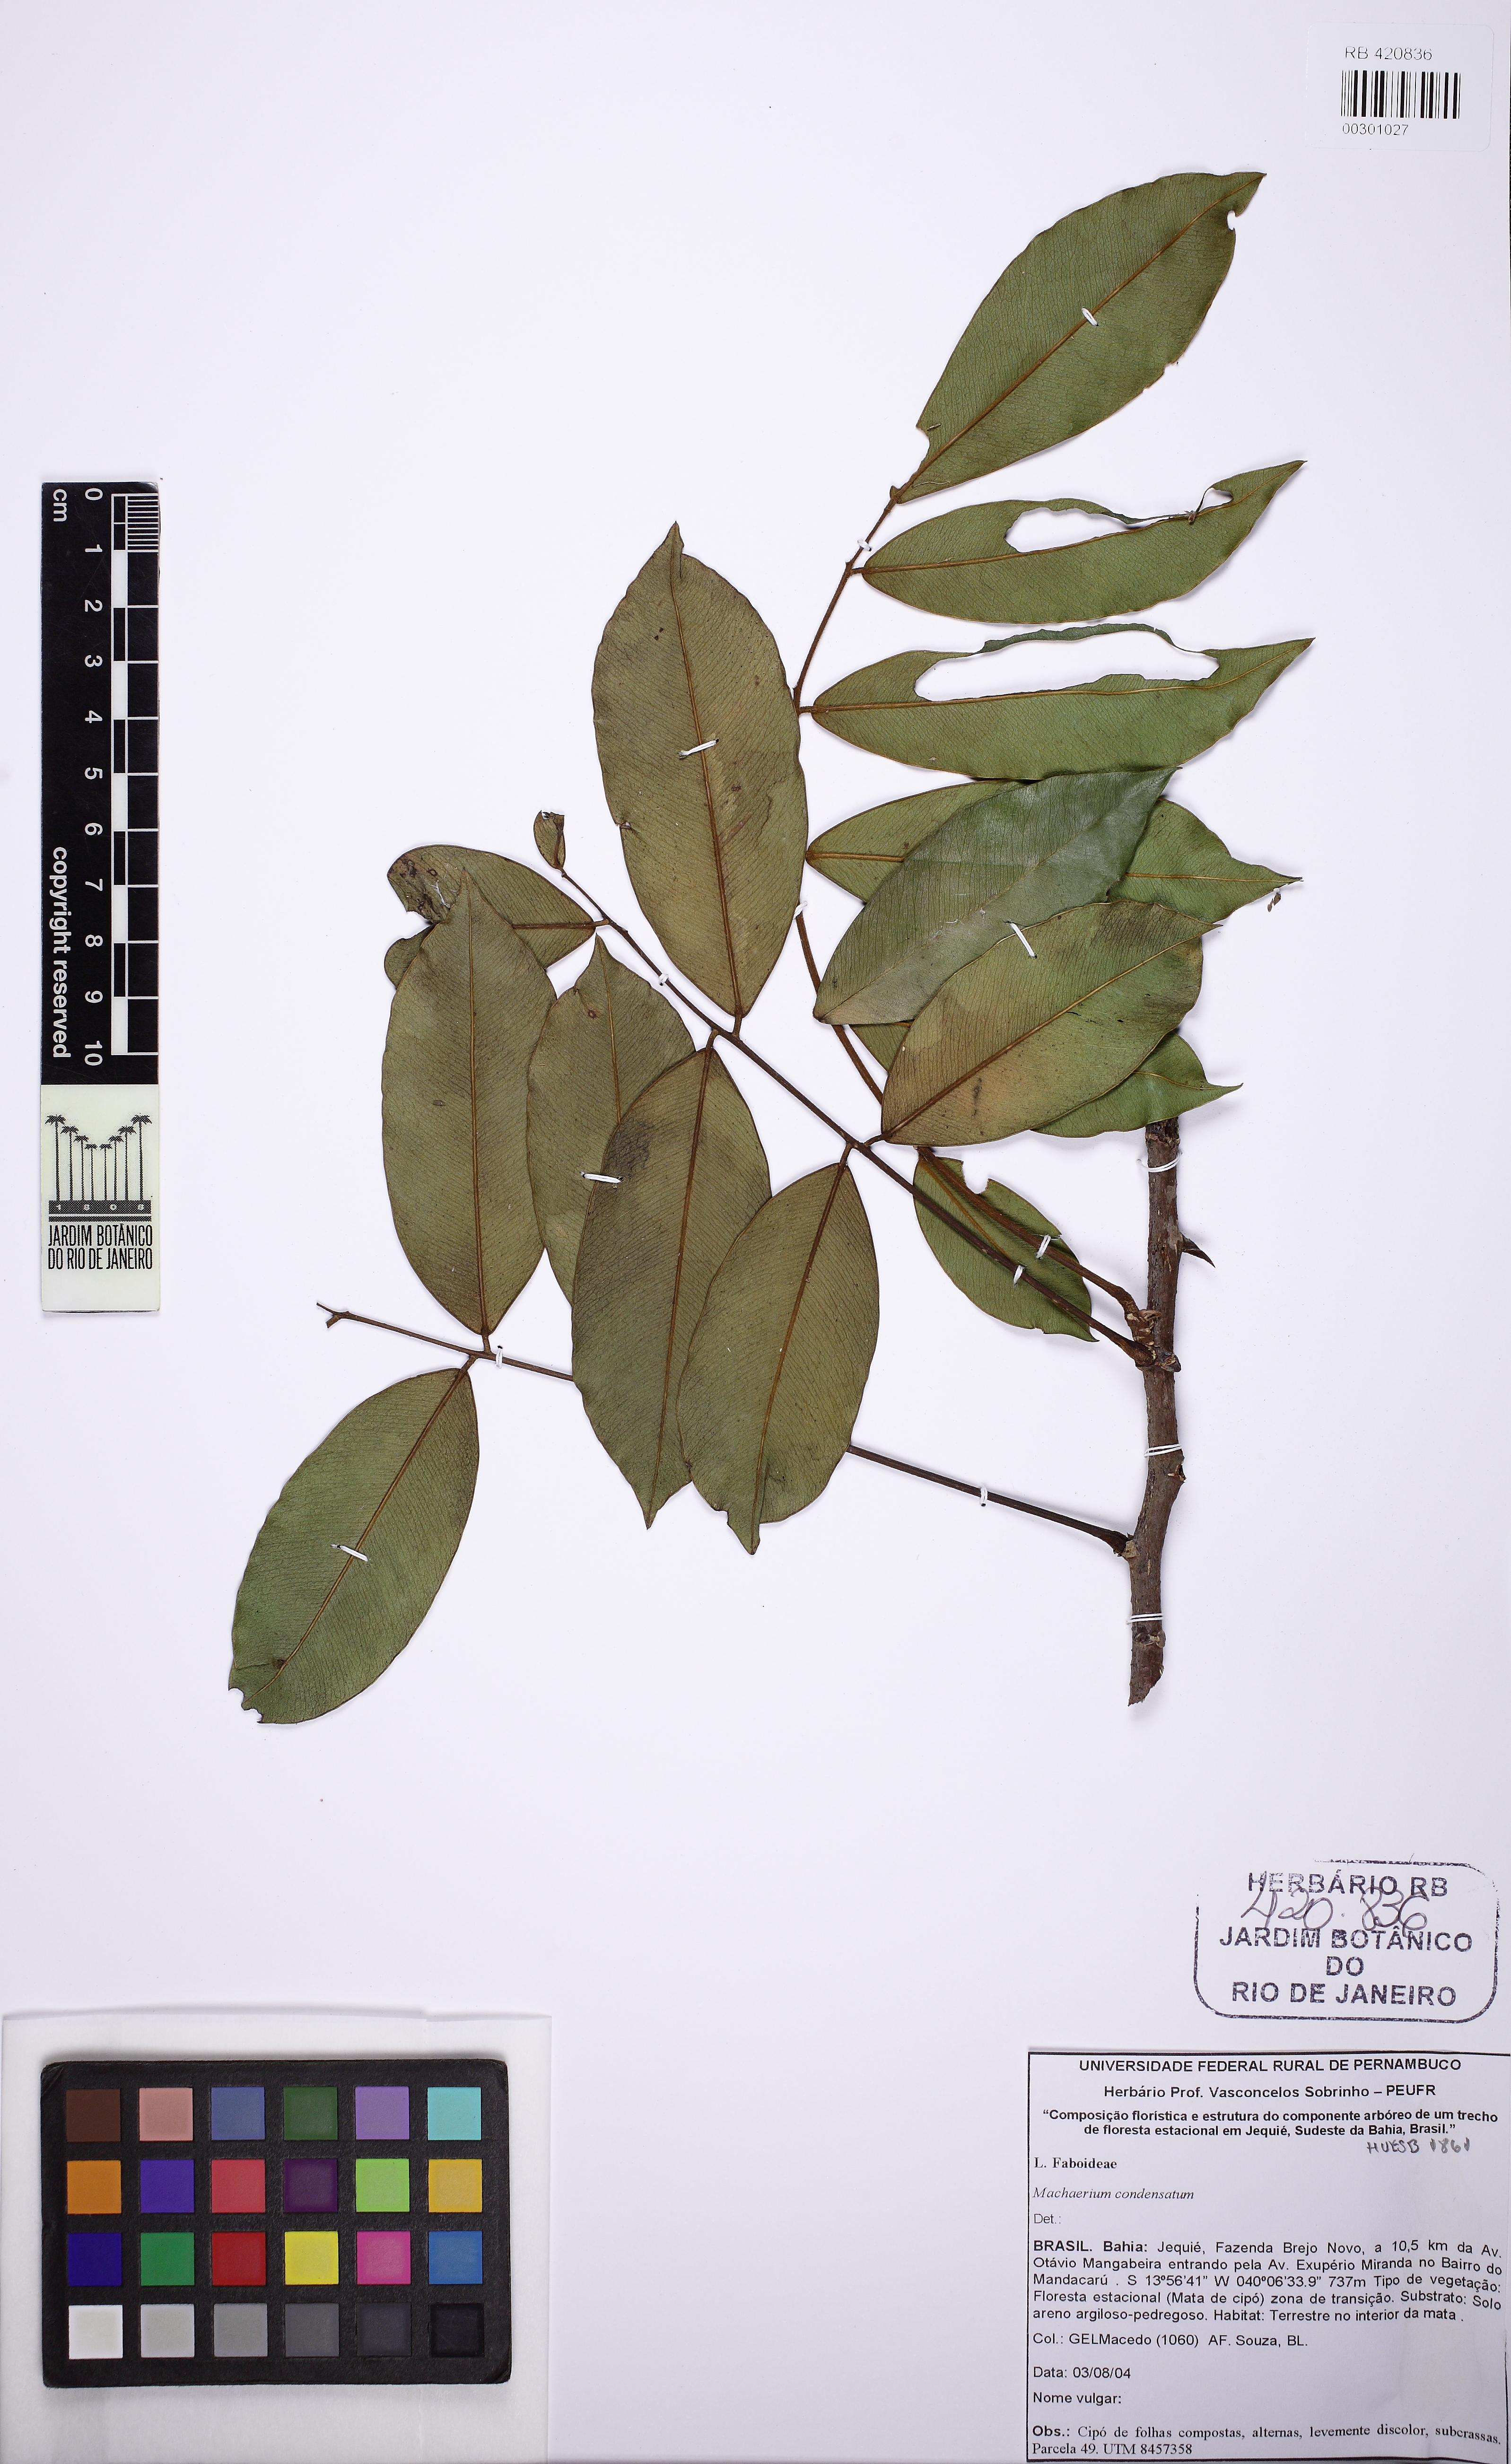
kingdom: Plantae
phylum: Tracheophyta
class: Magnoliopsida
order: Fabales
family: Fabaceae
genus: Machaerium
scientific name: Machaerium condensatum
